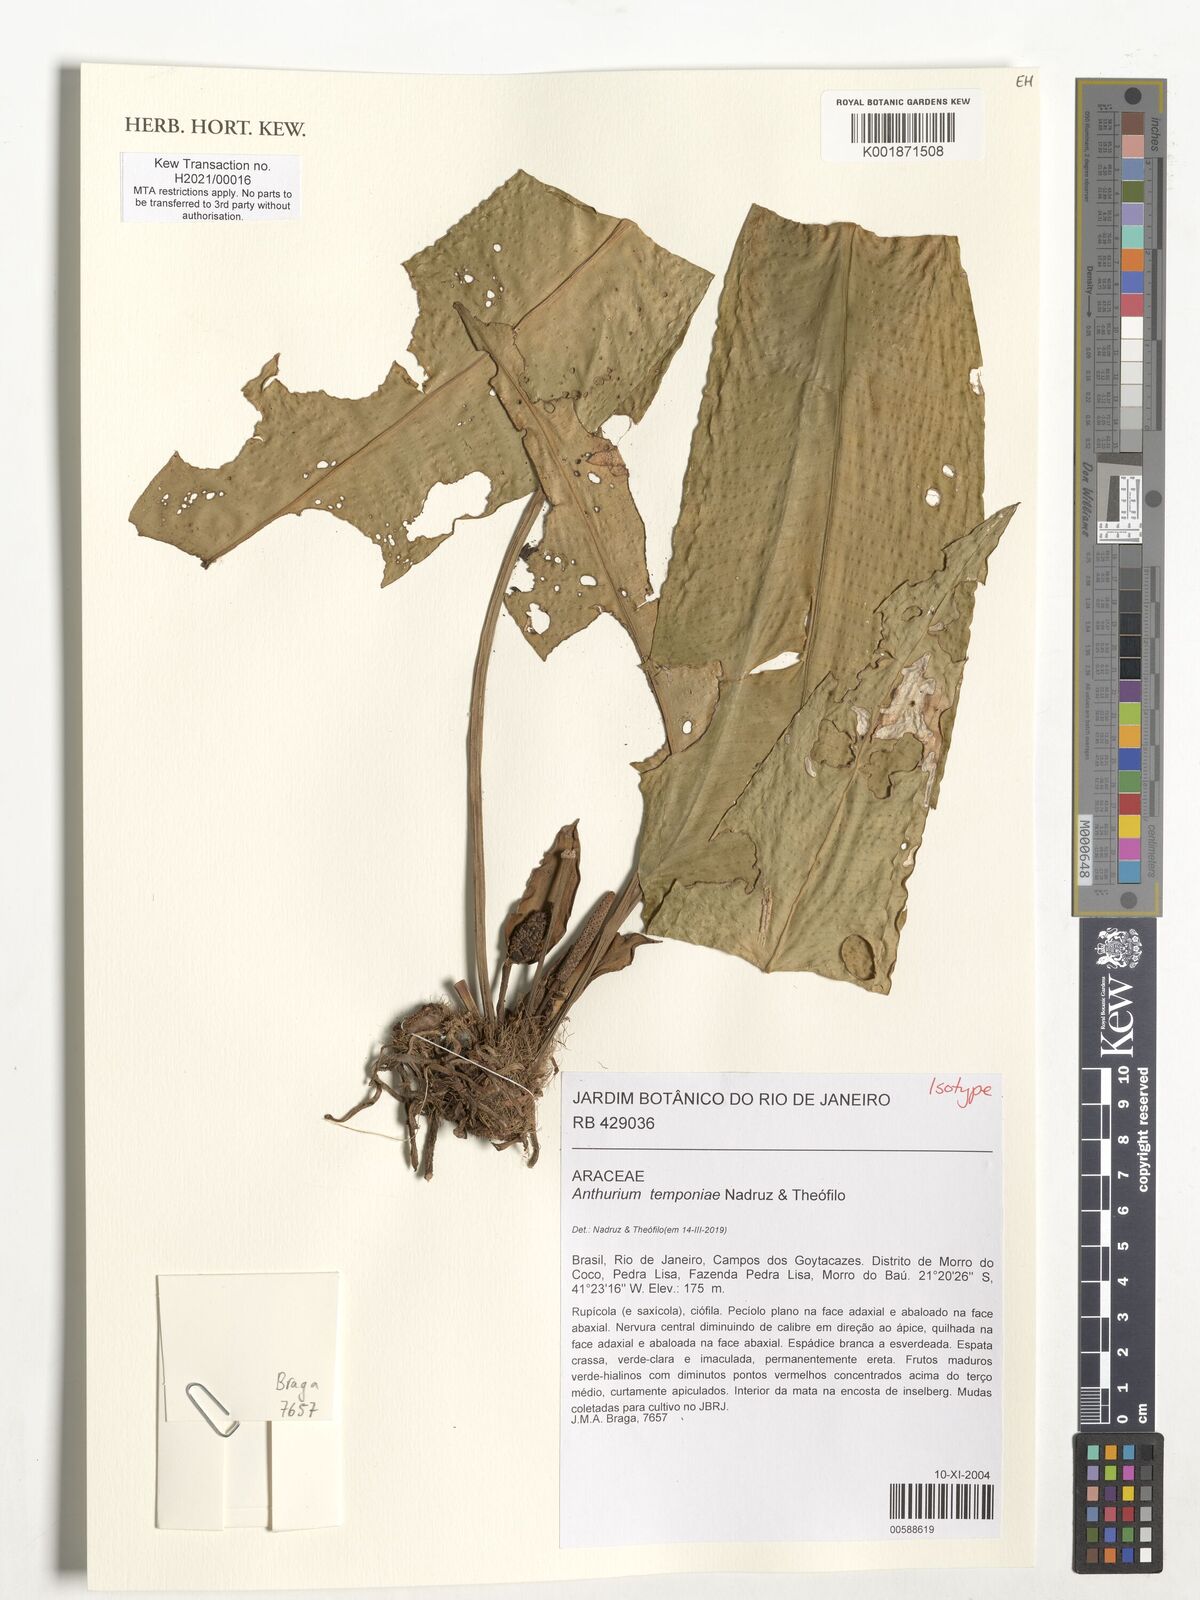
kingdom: Plantae
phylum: Tracheophyta
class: Liliopsida
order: Alismatales
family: Araceae
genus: Anthurium
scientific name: Anthurium temponiae
